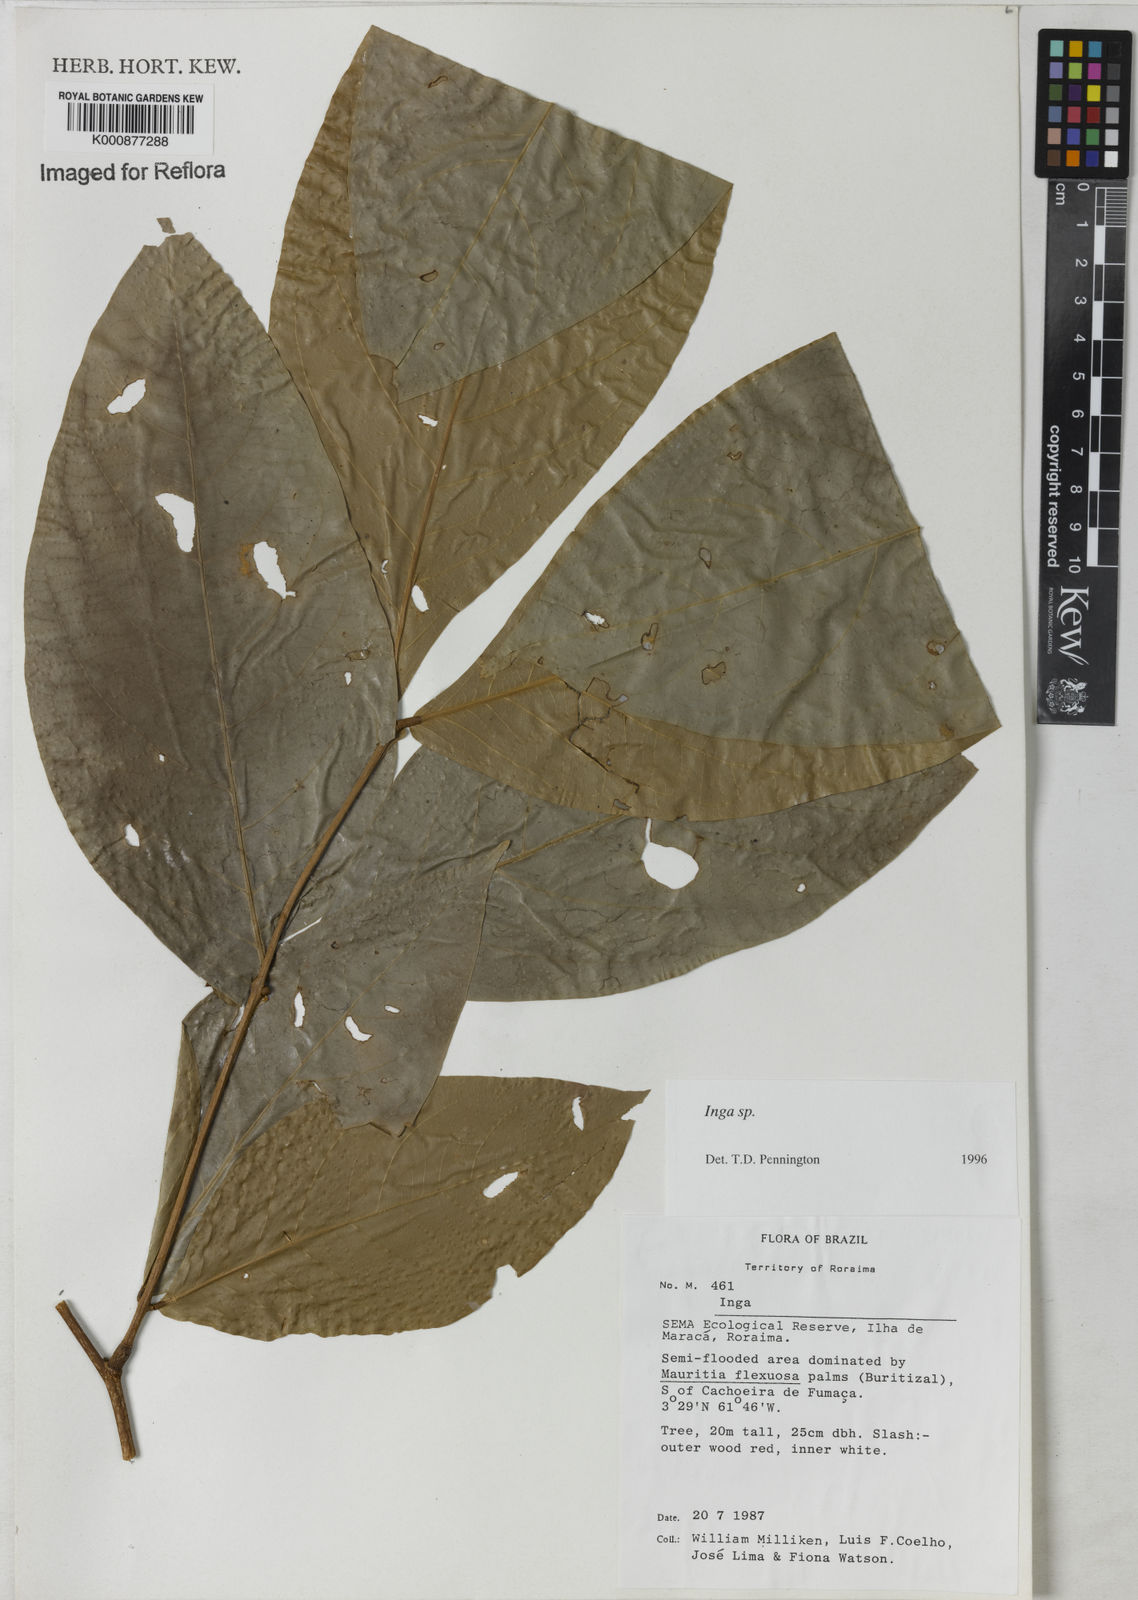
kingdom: Plantae
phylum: Tracheophyta
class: Magnoliopsida
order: Fabales
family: Fabaceae
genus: Inga
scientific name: Inga
